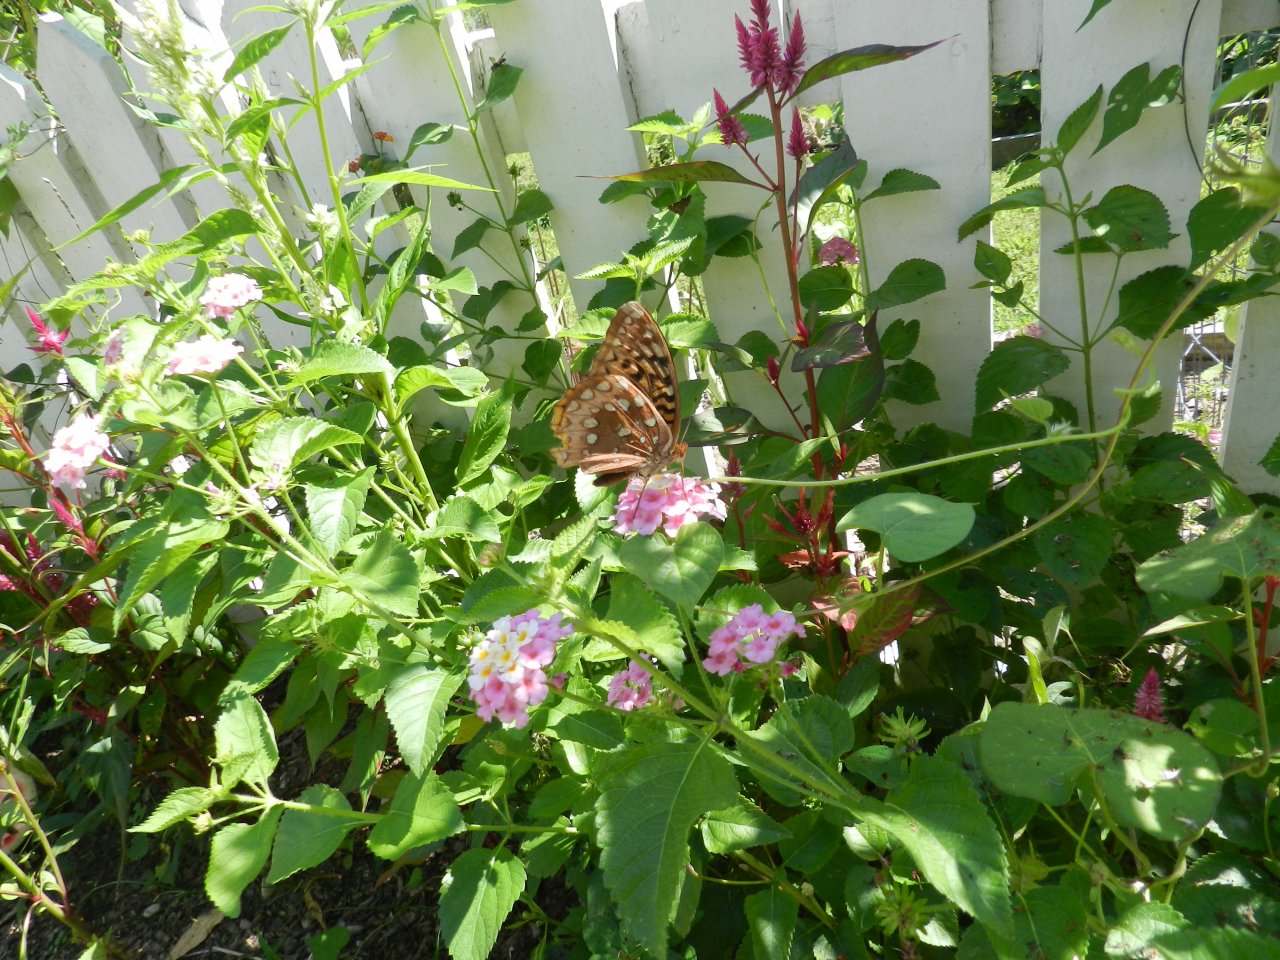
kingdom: Animalia
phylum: Arthropoda
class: Insecta
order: Lepidoptera
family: Nymphalidae
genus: Speyeria
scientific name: Speyeria cybele
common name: Great Spangled Fritillary
